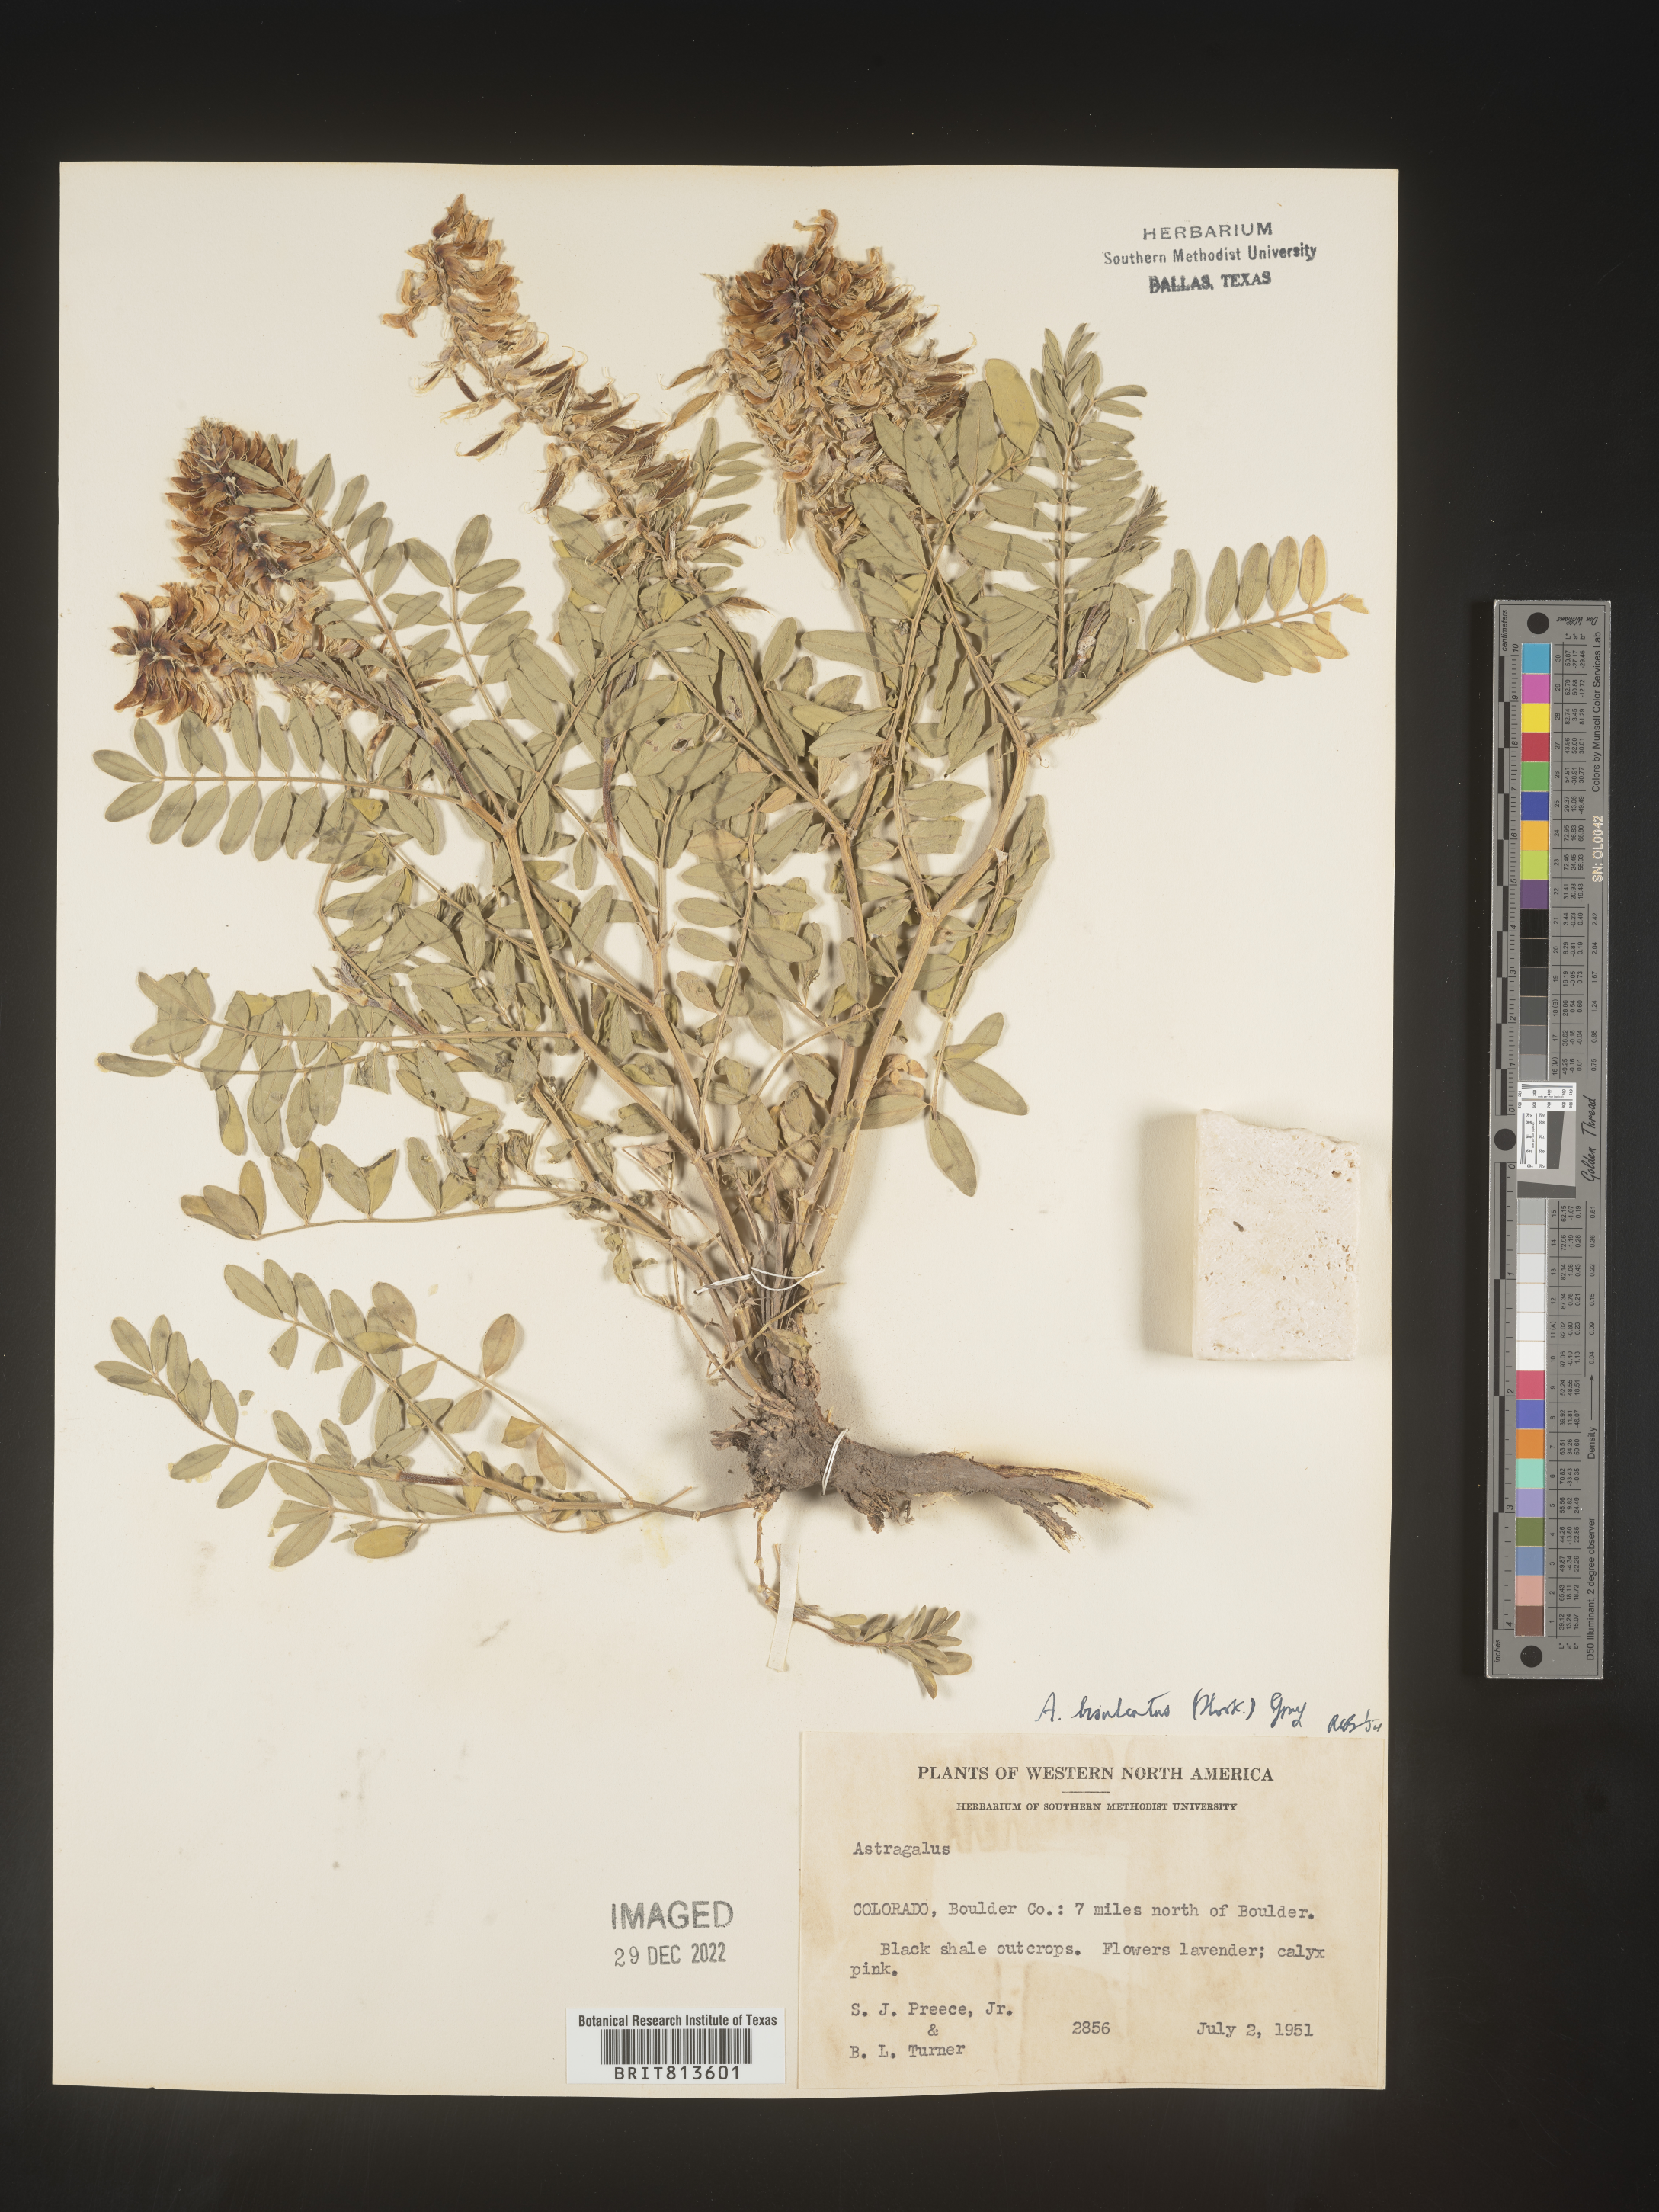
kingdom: Plantae
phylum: Tracheophyta
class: Magnoliopsida
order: Fabales
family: Fabaceae
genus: Astragalus
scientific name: Astragalus bisulcatus
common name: Two-groove milk-vetch
